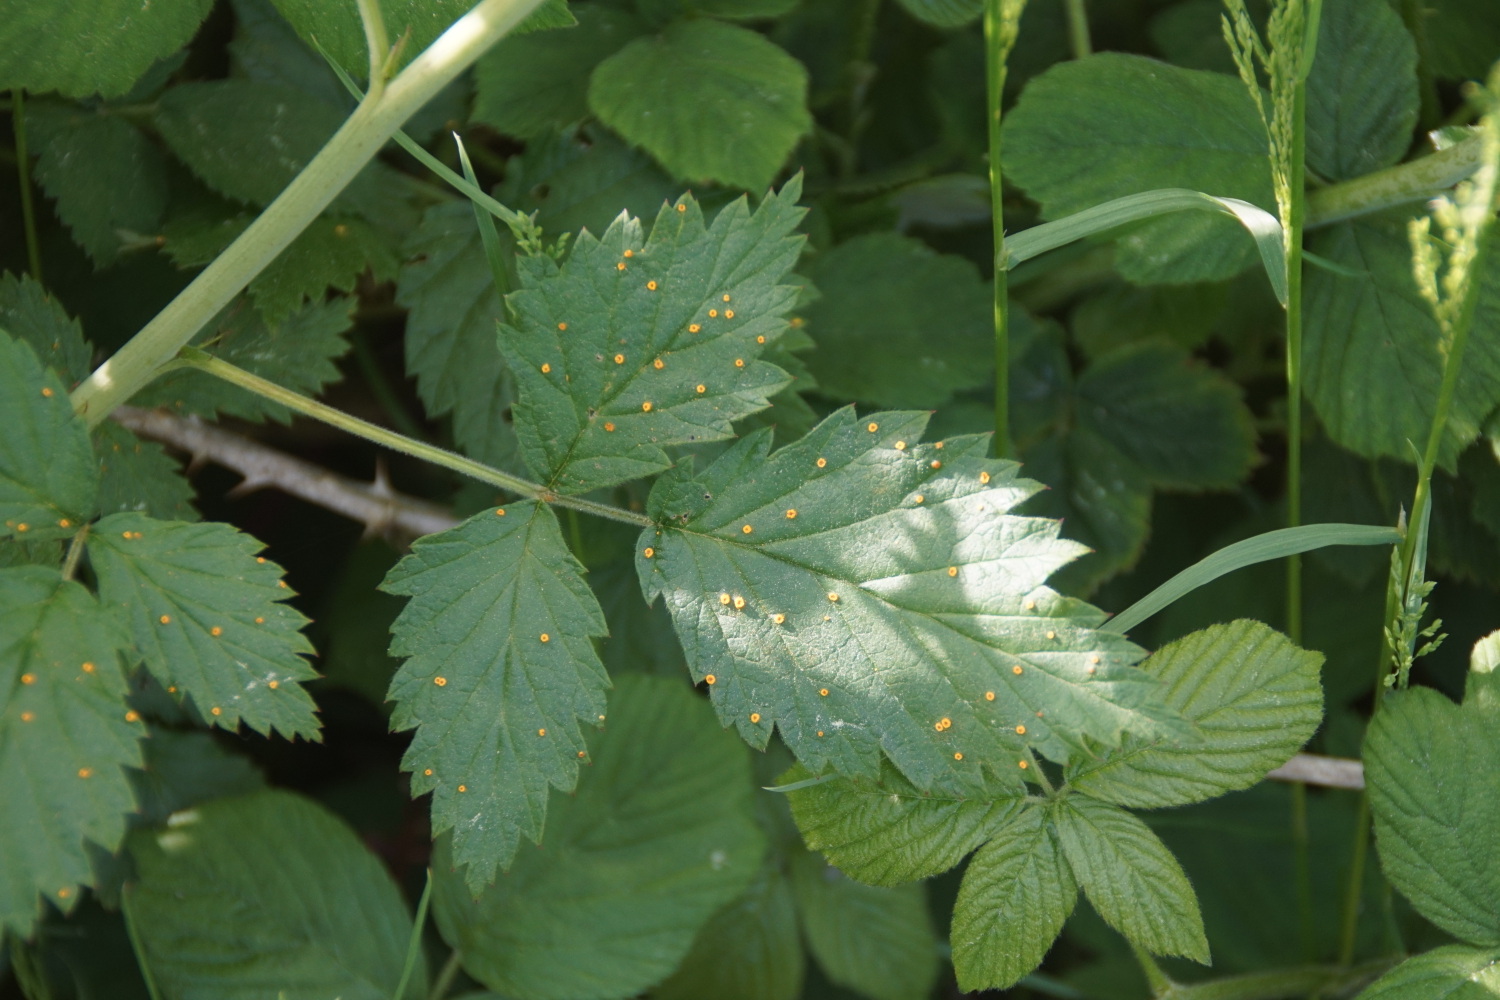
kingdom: Fungi
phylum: Basidiomycota
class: Pucciniomycetes
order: Pucciniales
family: Phragmidiaceae
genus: Phragmidium
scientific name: Phragmidium rubi-idaei
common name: hindbær-flercellerust
